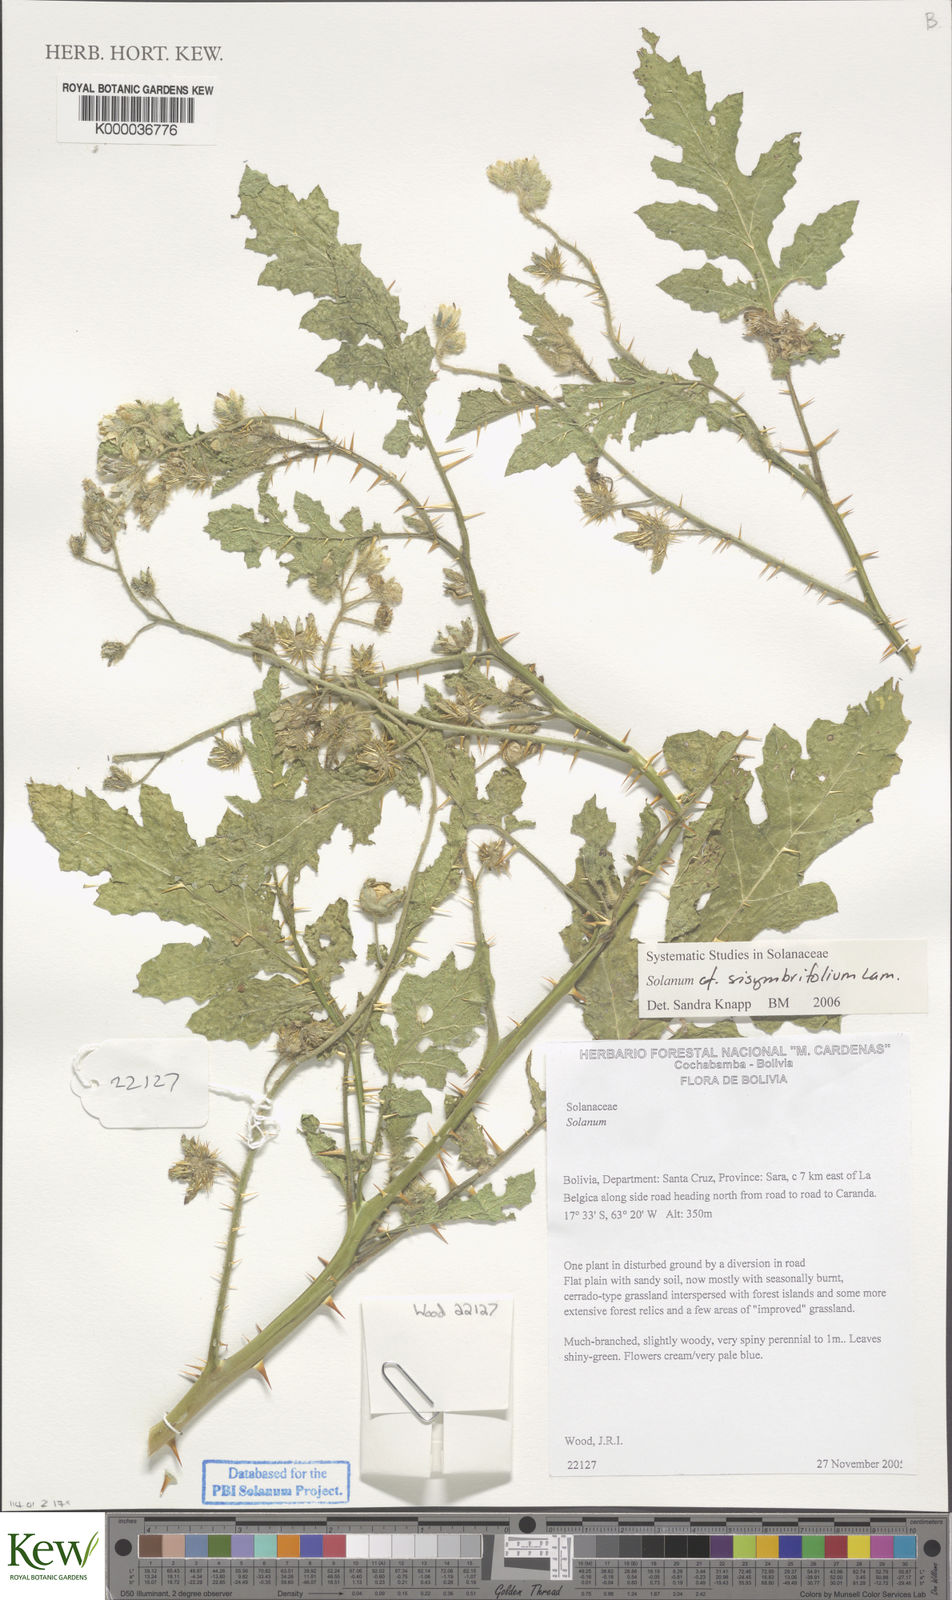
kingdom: Plantae
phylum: Tracheophyta
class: Magnoliopsida
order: Solanales
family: Solanaceae
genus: Solanum
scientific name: Solanum sisymbriifolium
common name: Red buffalo-bur
